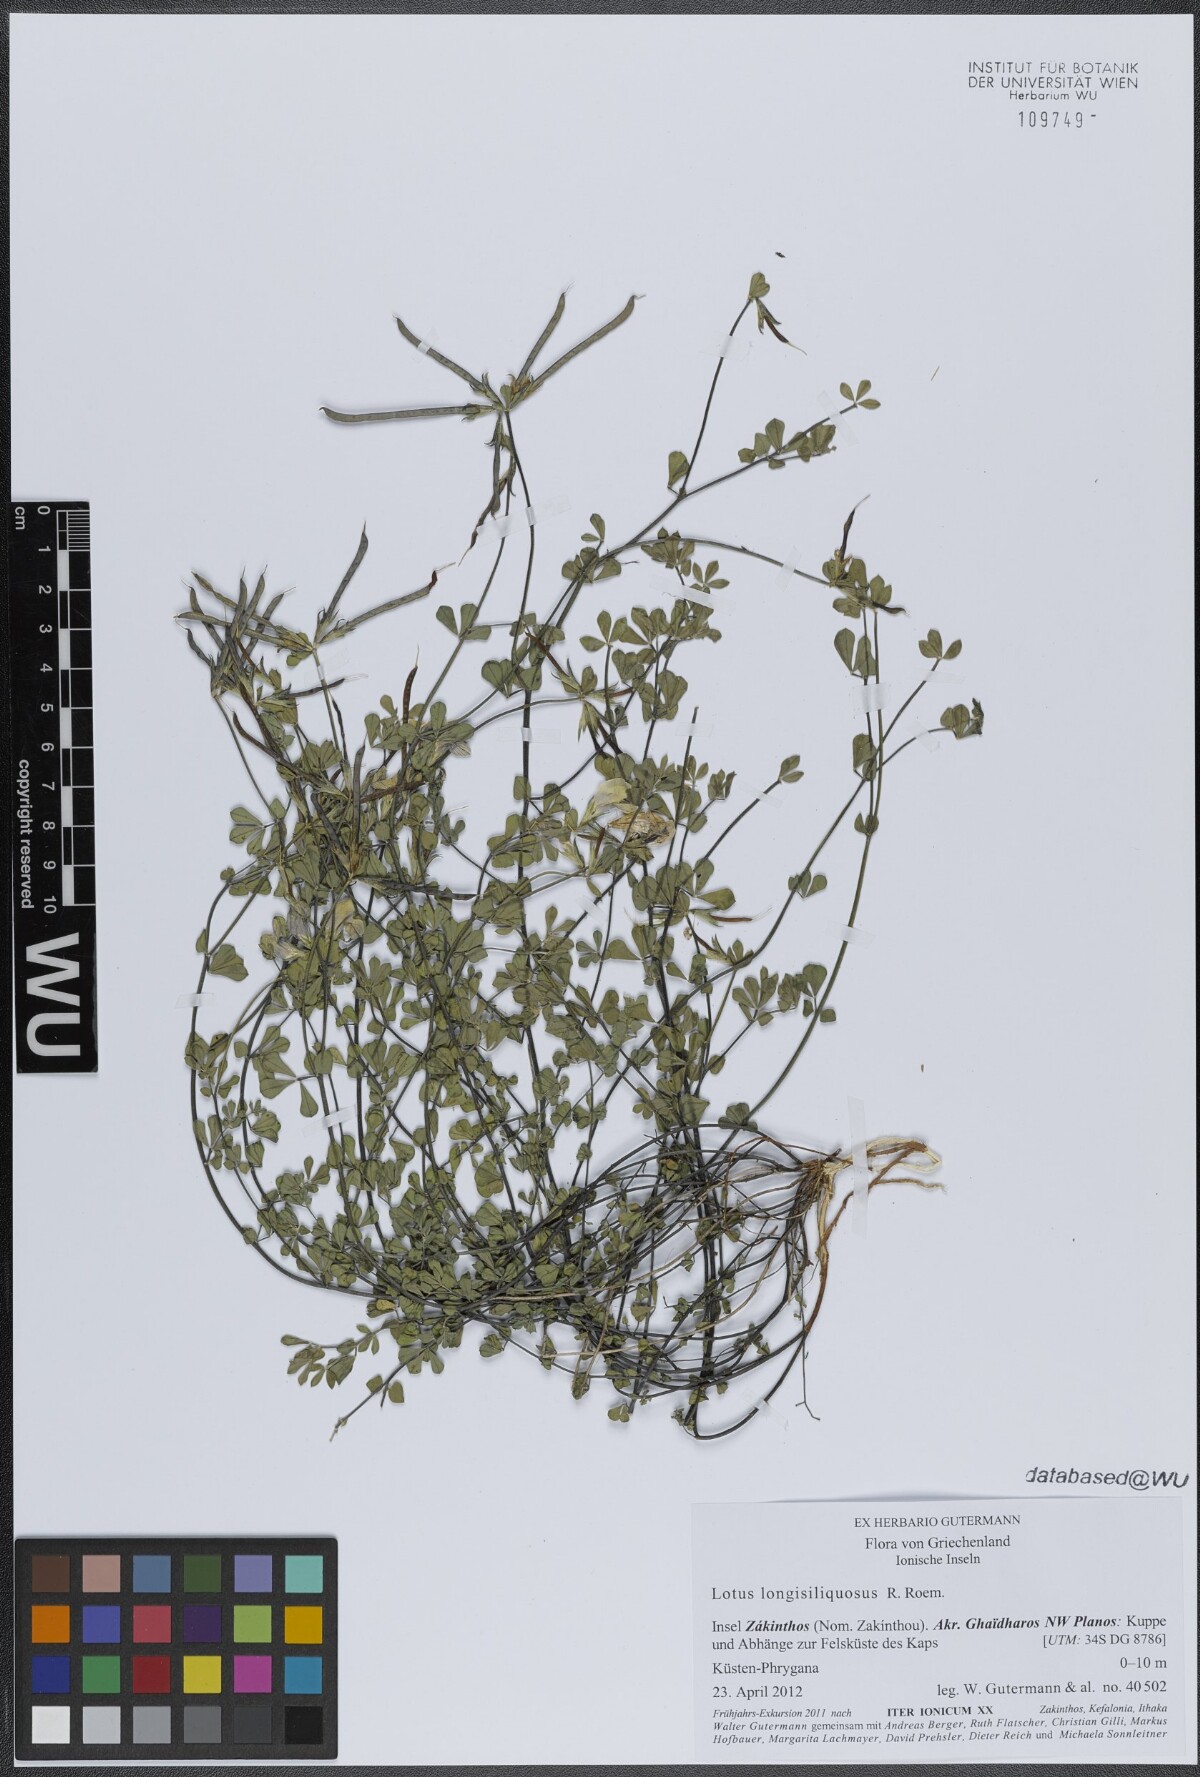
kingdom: Plantae
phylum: Tracheophyta
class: Magnoliopsida
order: Fabales
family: Fabaceae
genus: Lotus
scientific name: Lotus longisiliquosus
